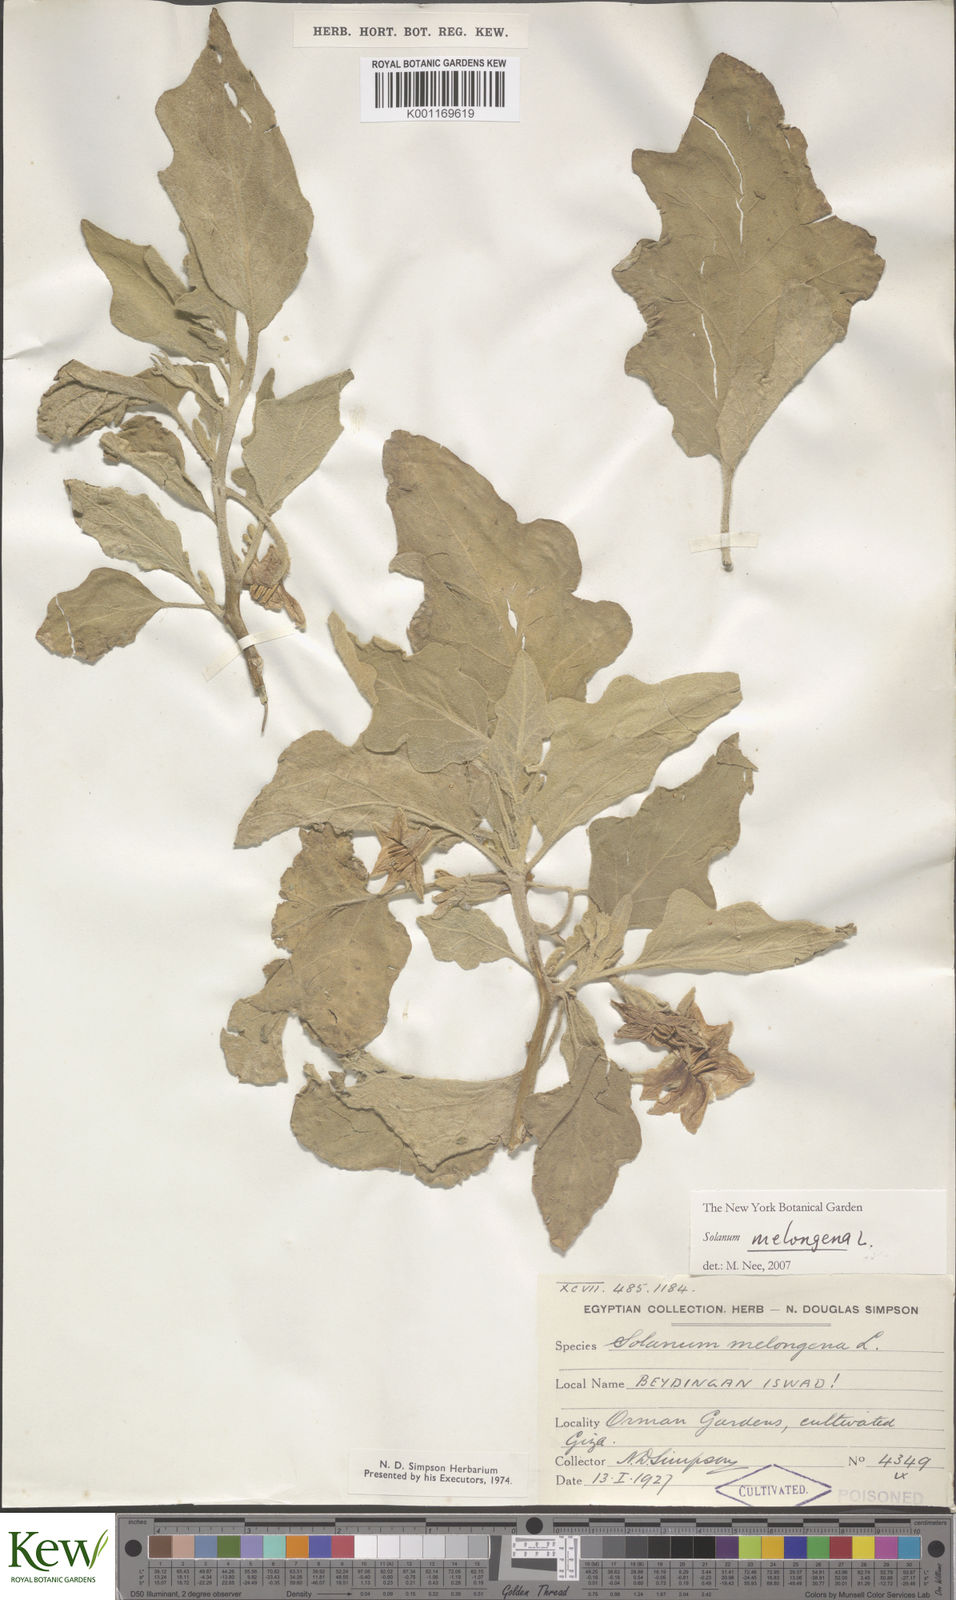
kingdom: Plantae
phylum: Tracheophyta
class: Magnoliopsida
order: Solanales
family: Solanaceae
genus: Solanum
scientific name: Solanum melongena
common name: Eggplant
